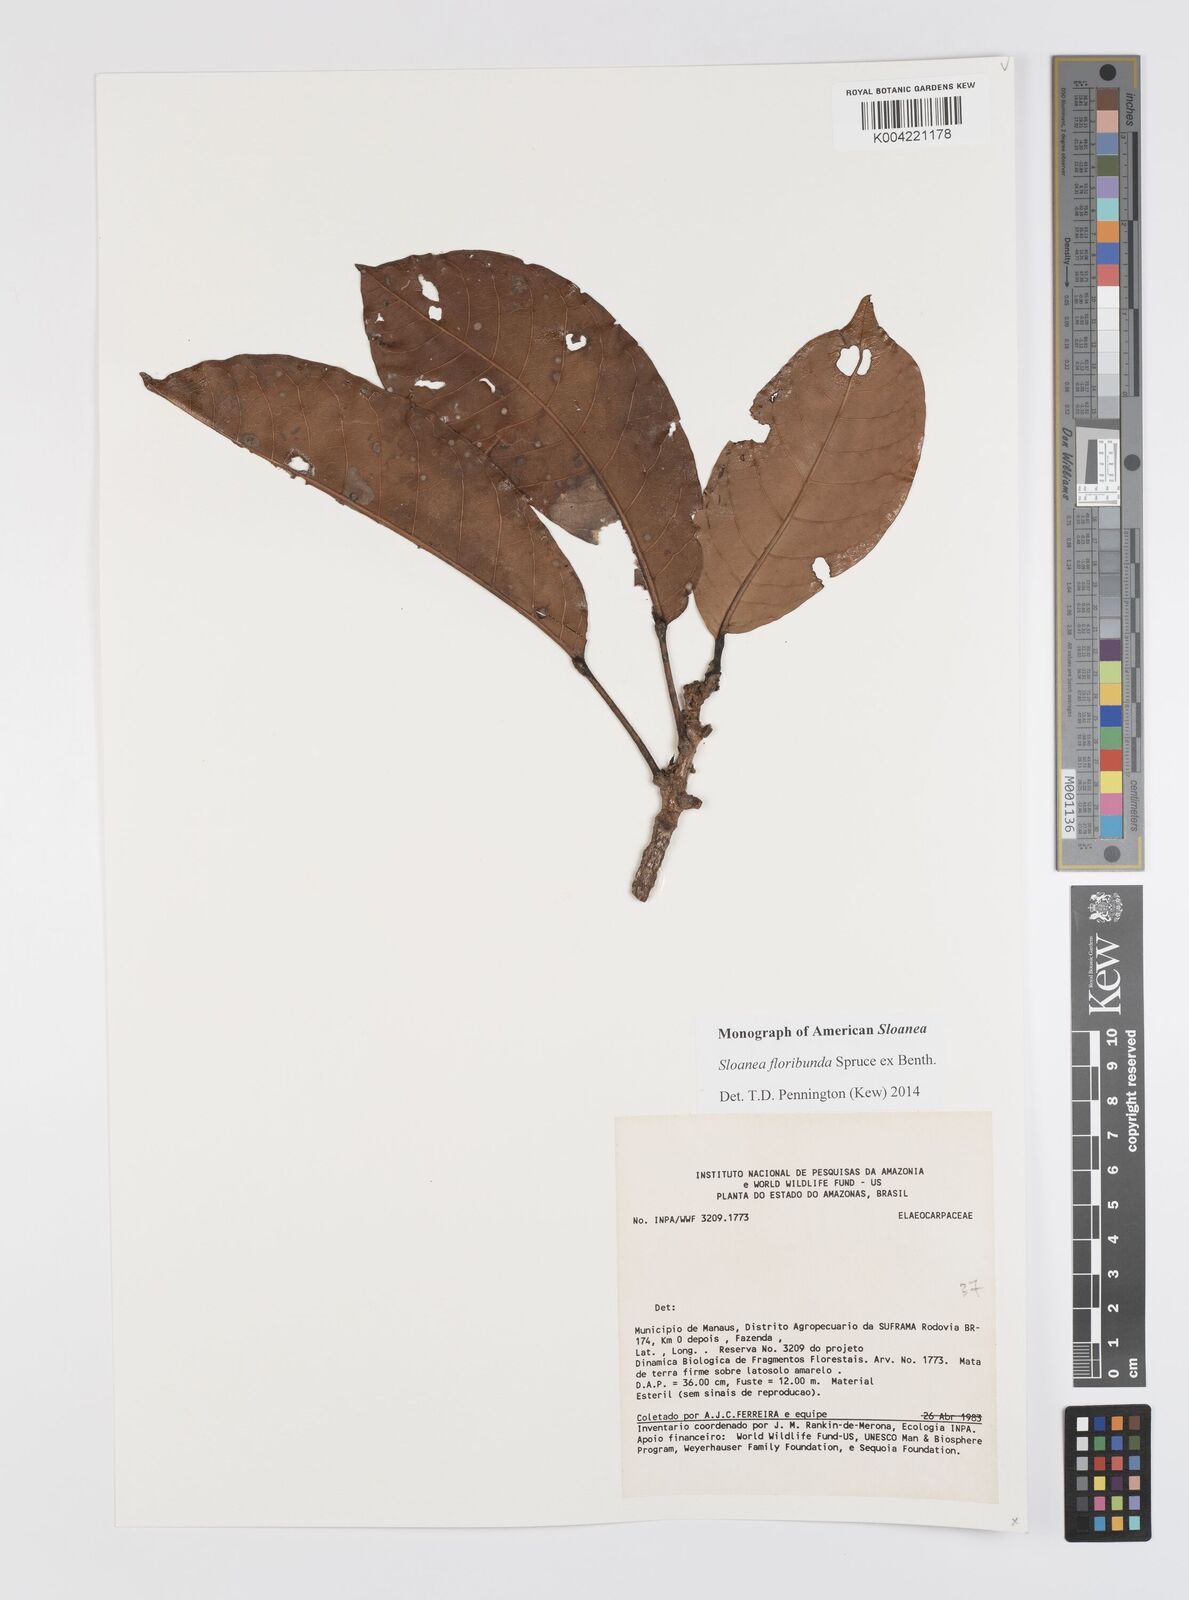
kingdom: Plantae
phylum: Tracheophyta
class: Magnoliopsida
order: Oxalidales
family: Elaeocarpaceae
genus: Sloanea
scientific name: Sloanea floribunda
